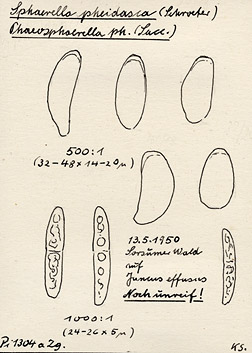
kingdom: Fungi
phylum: Ascomycota
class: Dothideomycetes
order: Pleosporales
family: Phaeosphaeriaceae
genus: Stagonospora
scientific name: Stagonospora innumerosa
